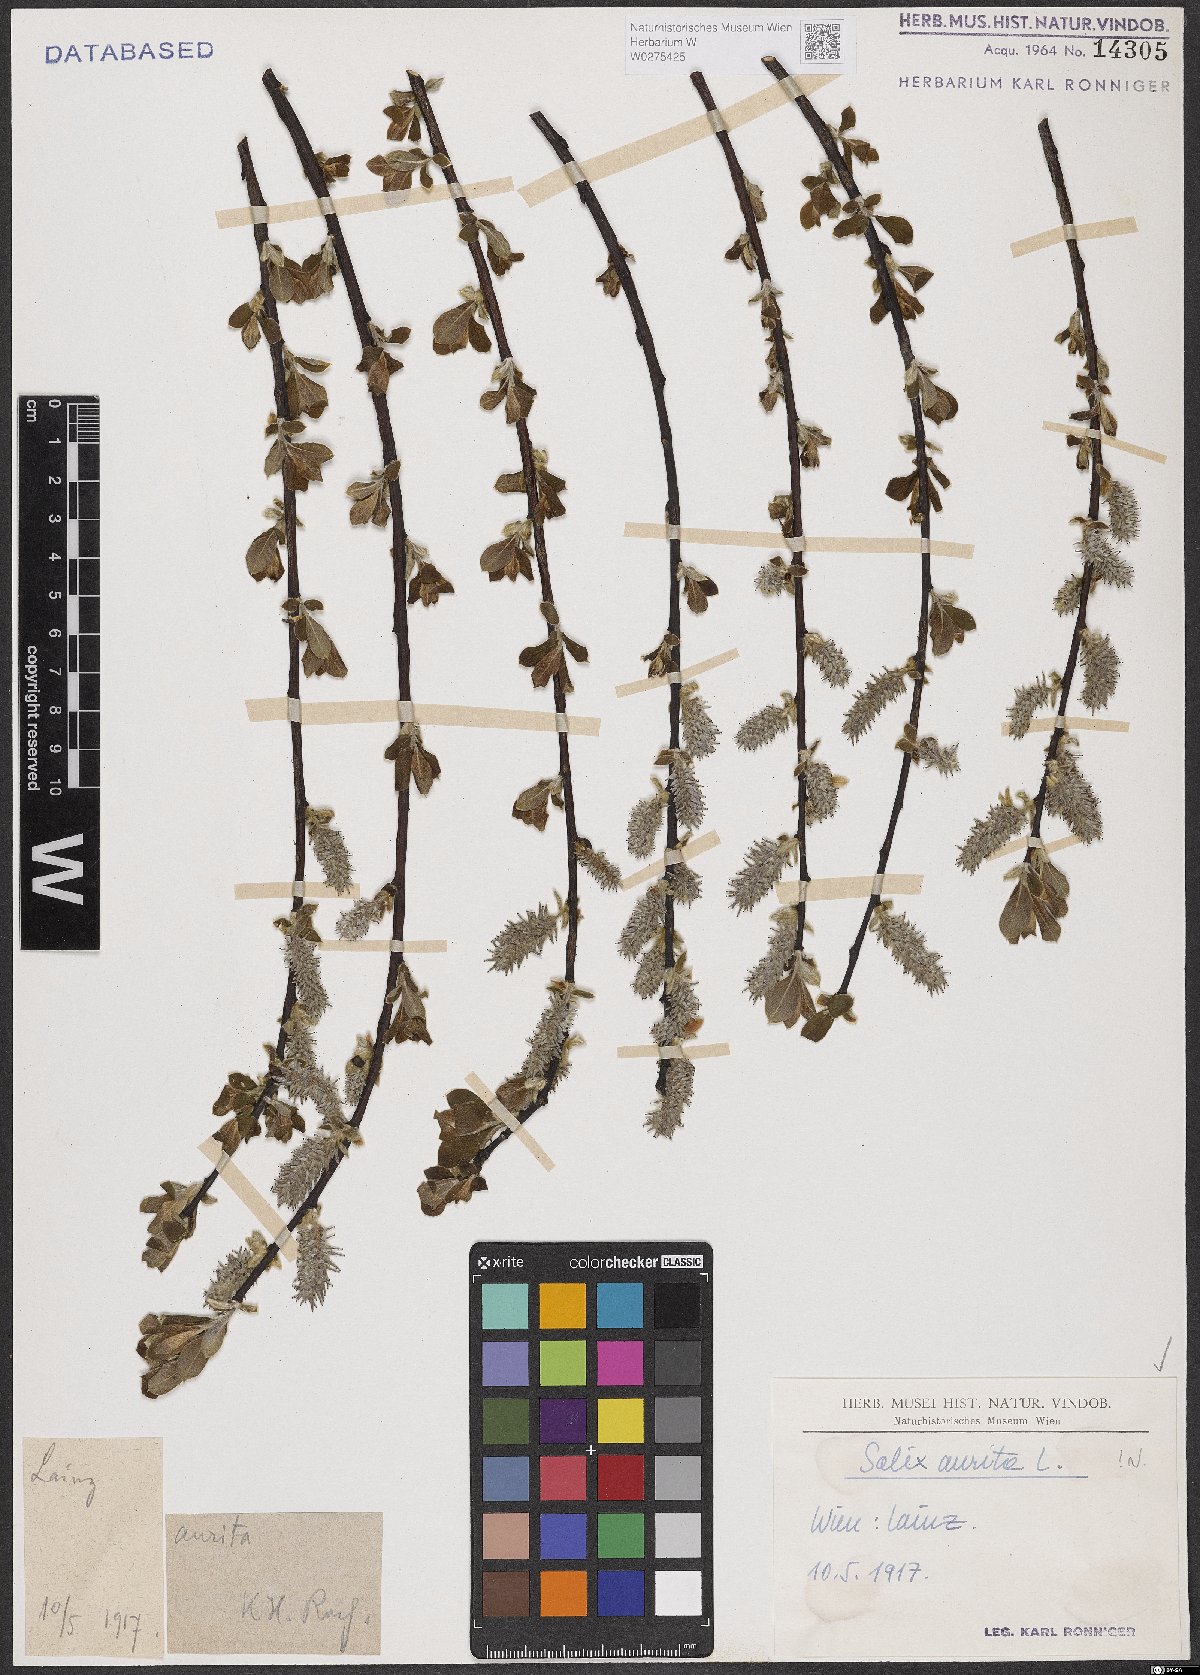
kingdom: Plantae
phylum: Tracheophyta
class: Magnoliopsida
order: Malpighiales
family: Salicaceae
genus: Salix
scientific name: Salix aurita
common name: Eared willow
